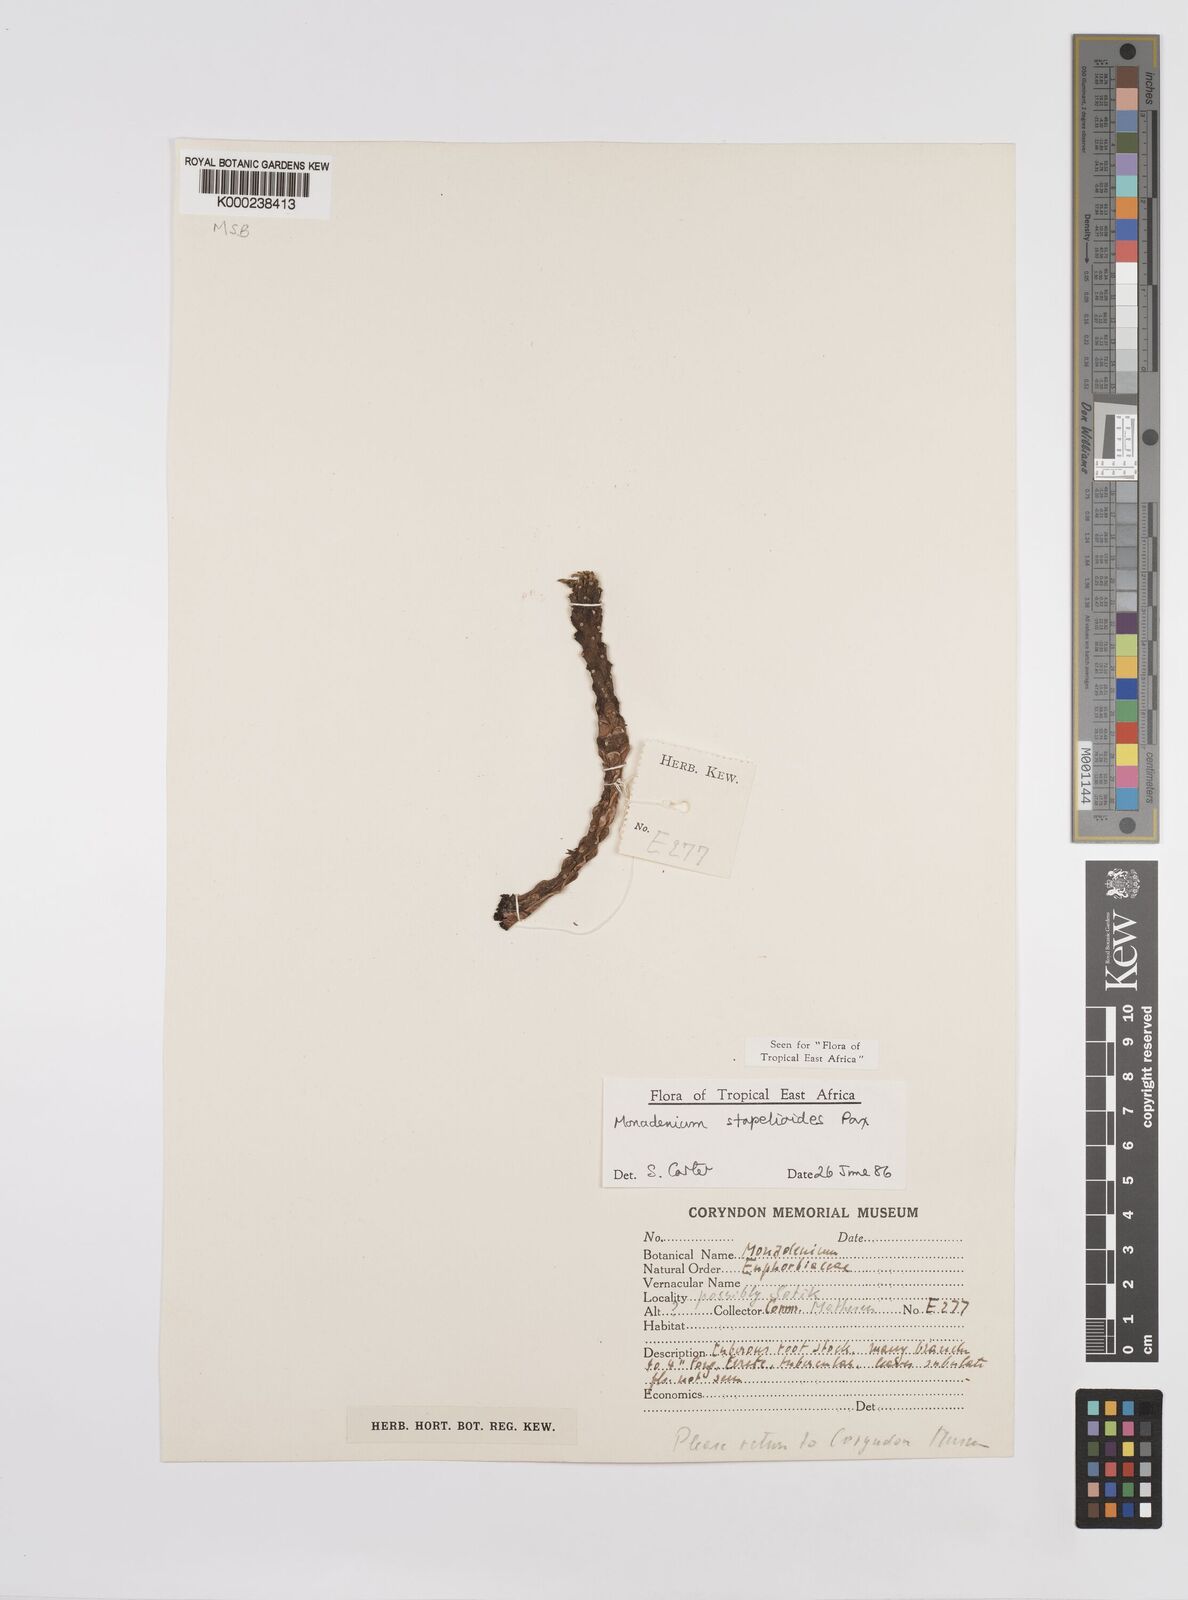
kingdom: Plantae
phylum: Tracheophyta
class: Magnoliopsida
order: Malpighiales
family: Euphorbiaceae
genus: Euphorbia
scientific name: Euphorbia succulenta
